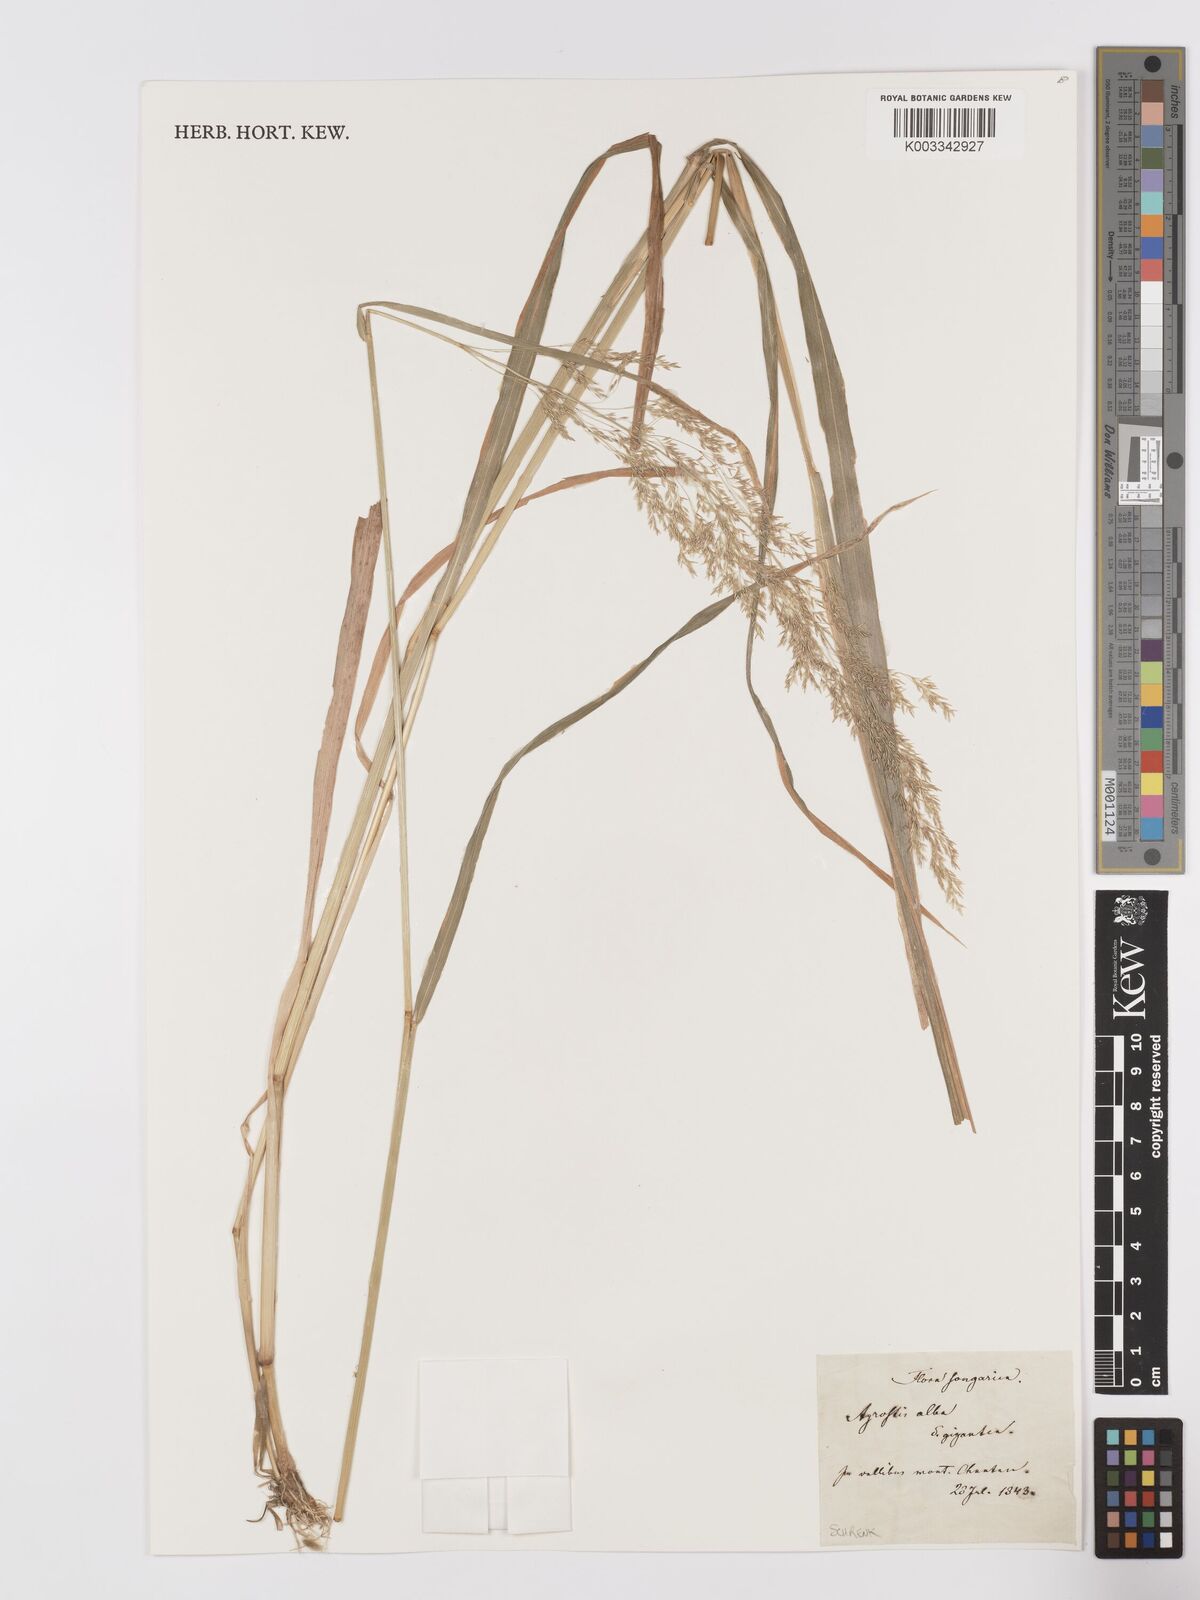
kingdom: Plantae
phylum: Tracheophyta
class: Liliopsida
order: Poales
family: Poaceae
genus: Agrostis
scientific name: Agrostis gigantea
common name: Black bent
